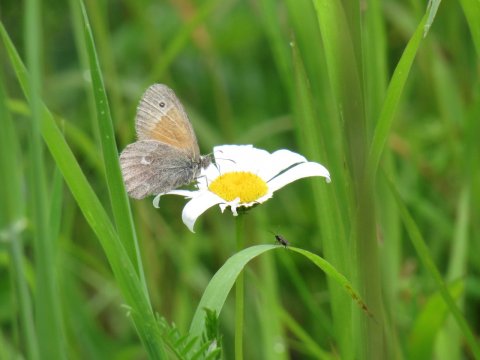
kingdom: Animalia
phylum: Arthropoda
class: Insecta
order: Lepidoptera
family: Nymphalidae
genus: Coenonympha
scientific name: Coenonympha tullia
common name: Large Heath
